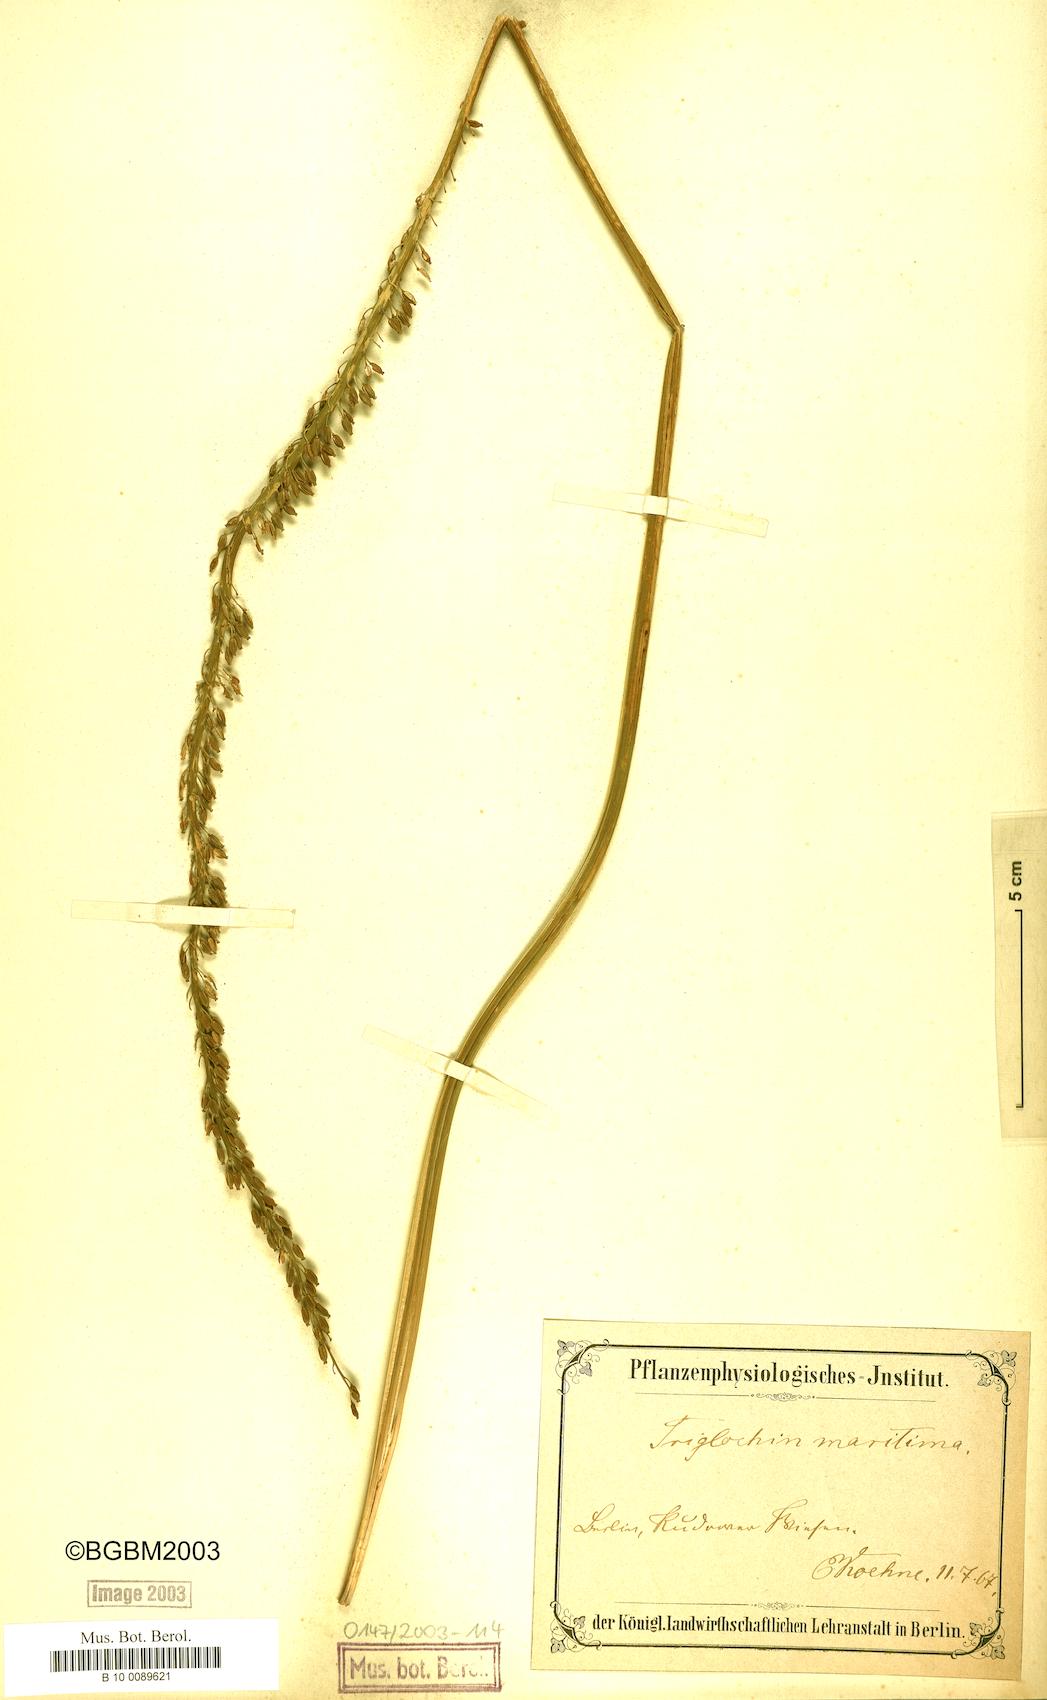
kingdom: Plantae
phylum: Tracheophyta
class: Liliopsida
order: Alismatales
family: Juncaginaceae
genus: Triglochin
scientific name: Triglochin maritima
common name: Sea arrowgrass
